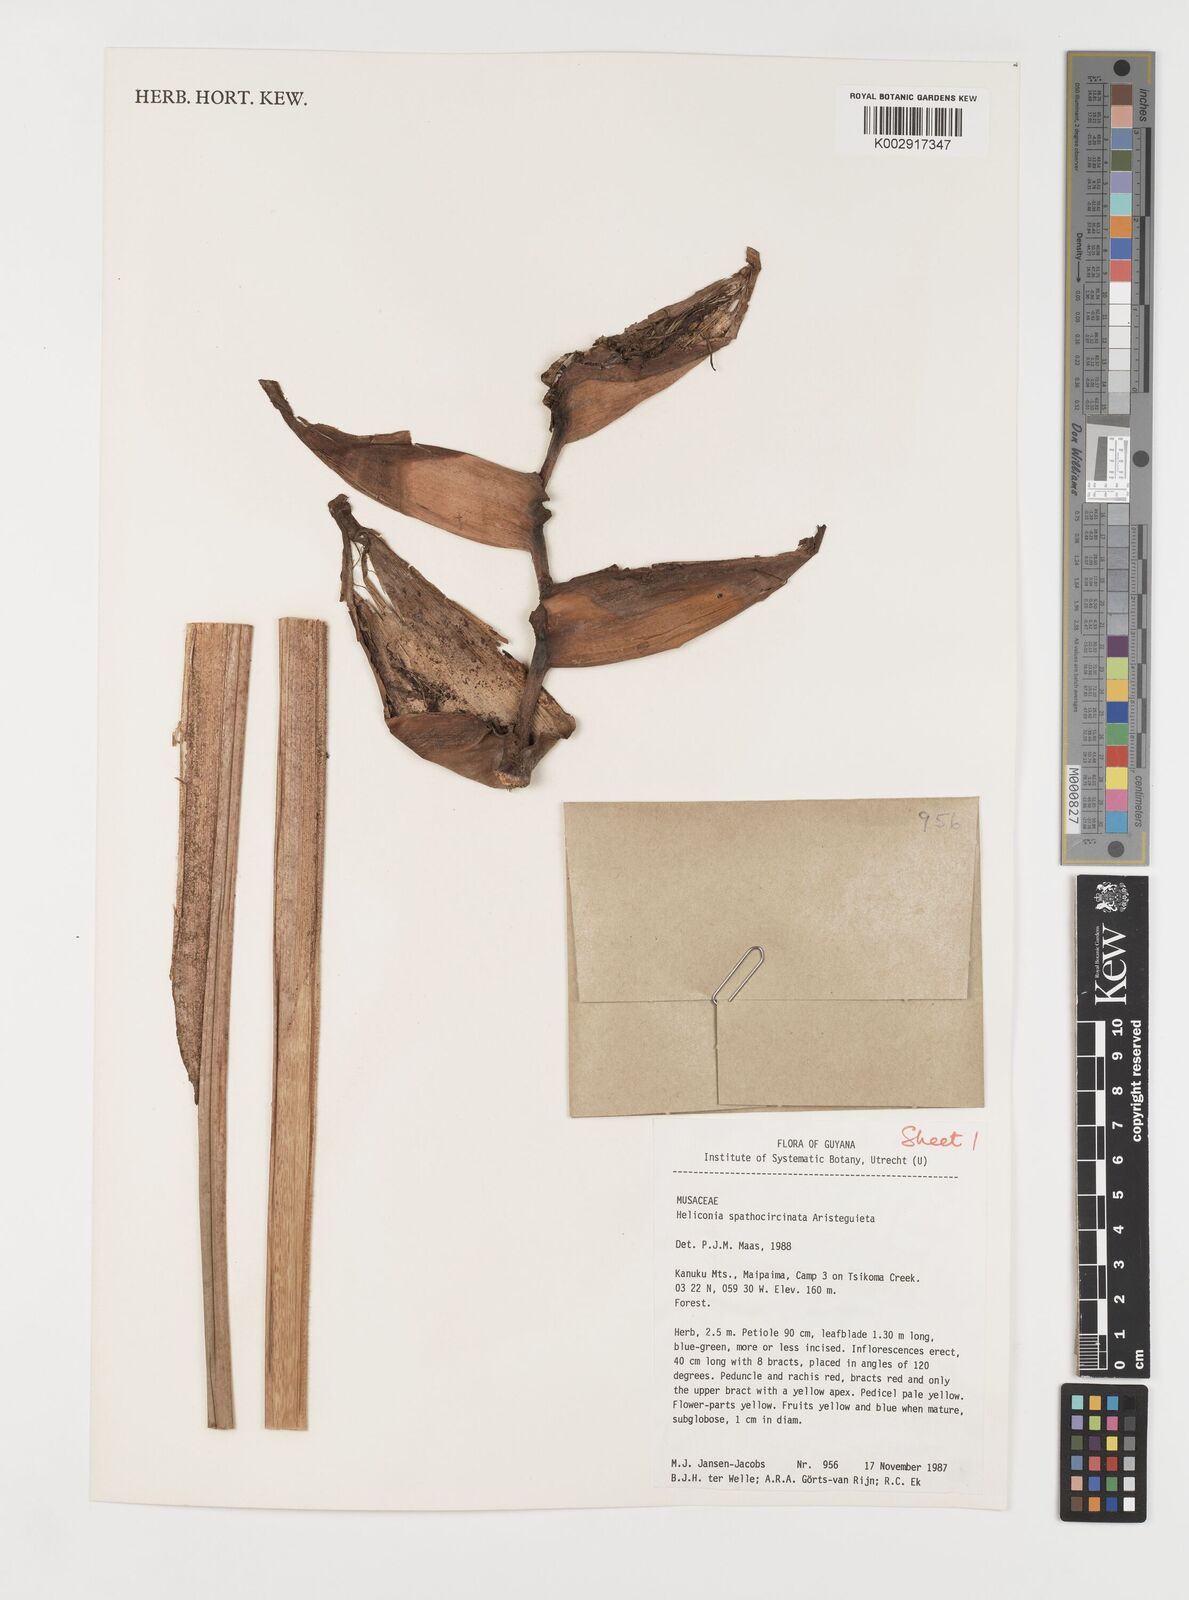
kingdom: Plantae
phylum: Tracheophyta
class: Liliopsida
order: Zingiberales
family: Heliconiaceae
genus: Heliconia
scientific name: Heliconia spathocircinata
